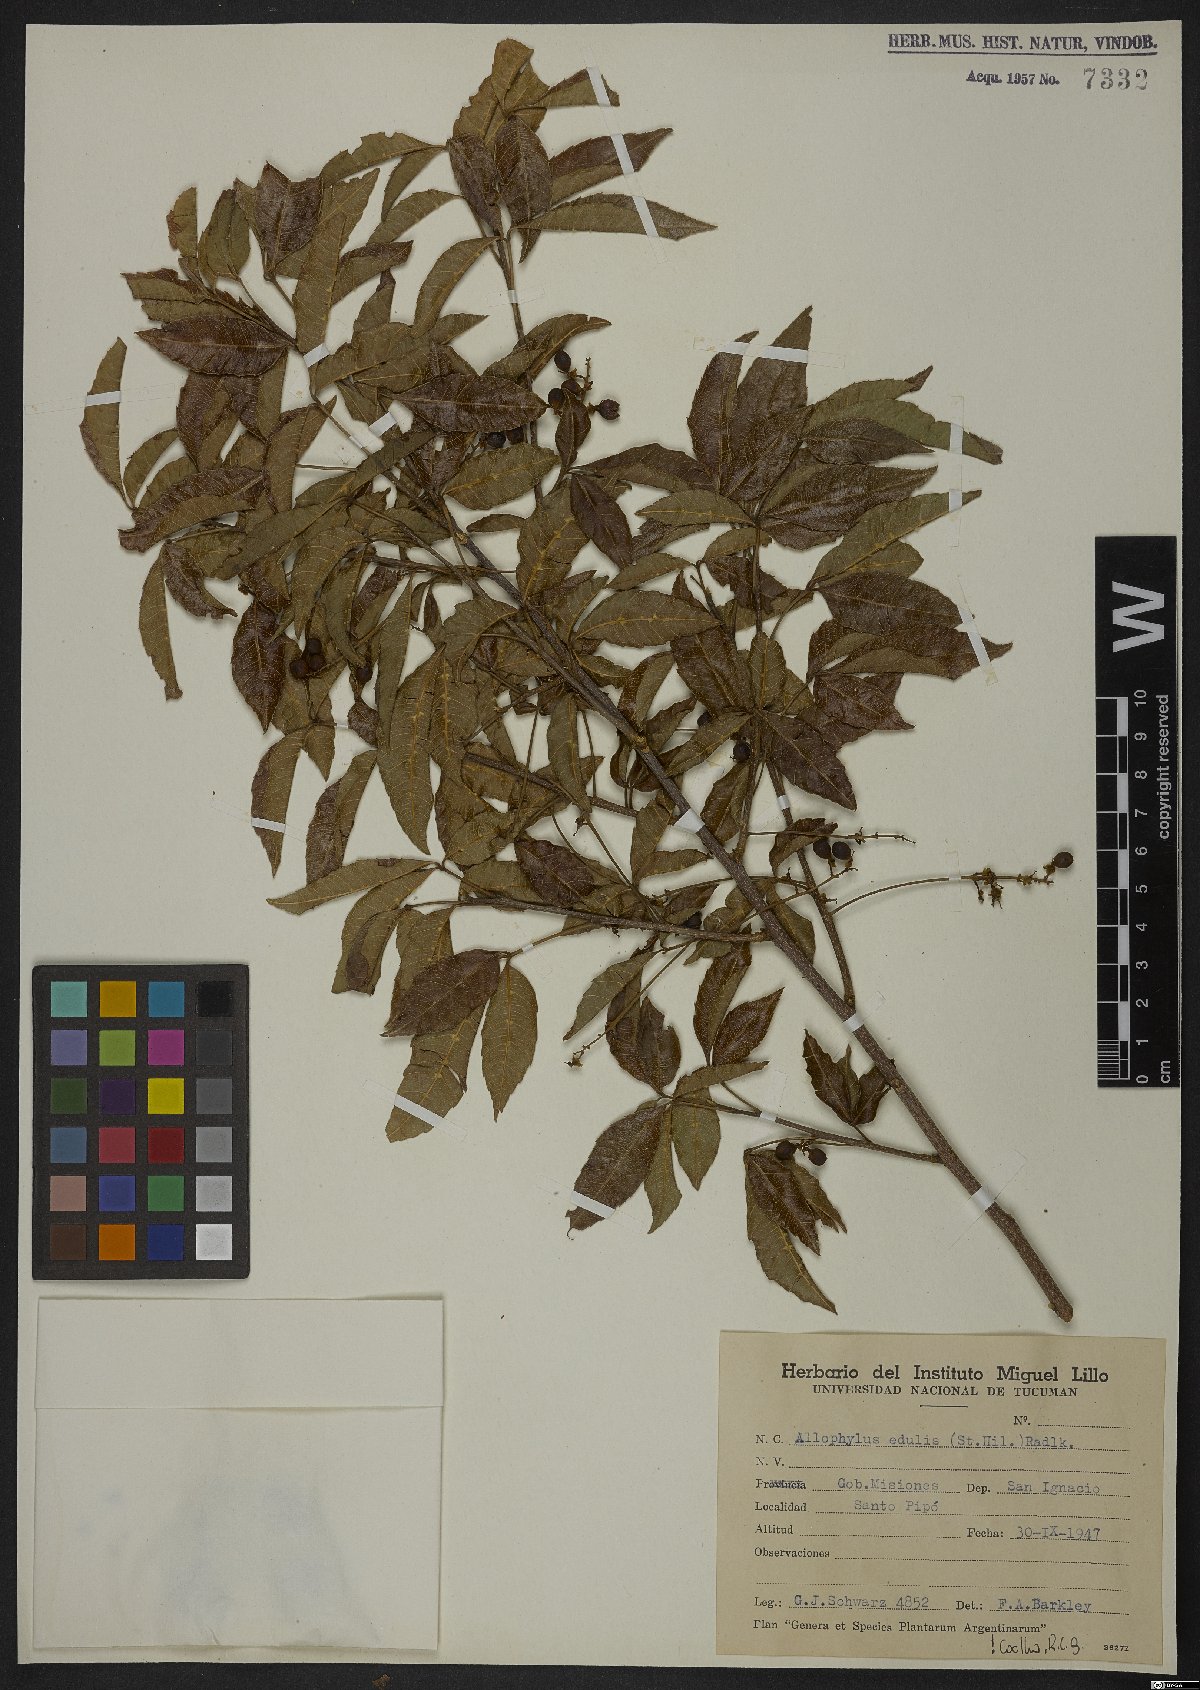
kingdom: Plantae
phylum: Tracheophyta
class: Magnoliopsida
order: Sapindales
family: Sapindaceae
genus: Allophylus
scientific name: Allophylus edulis
